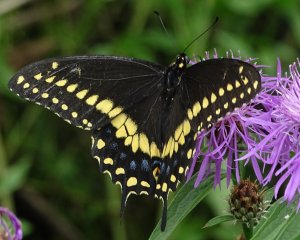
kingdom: Animalia
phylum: Arthropoda
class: Insecta
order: Lepidoptera
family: Papilionidae
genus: Papilio
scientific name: Papilio polyxenes
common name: Black Swallowtail
